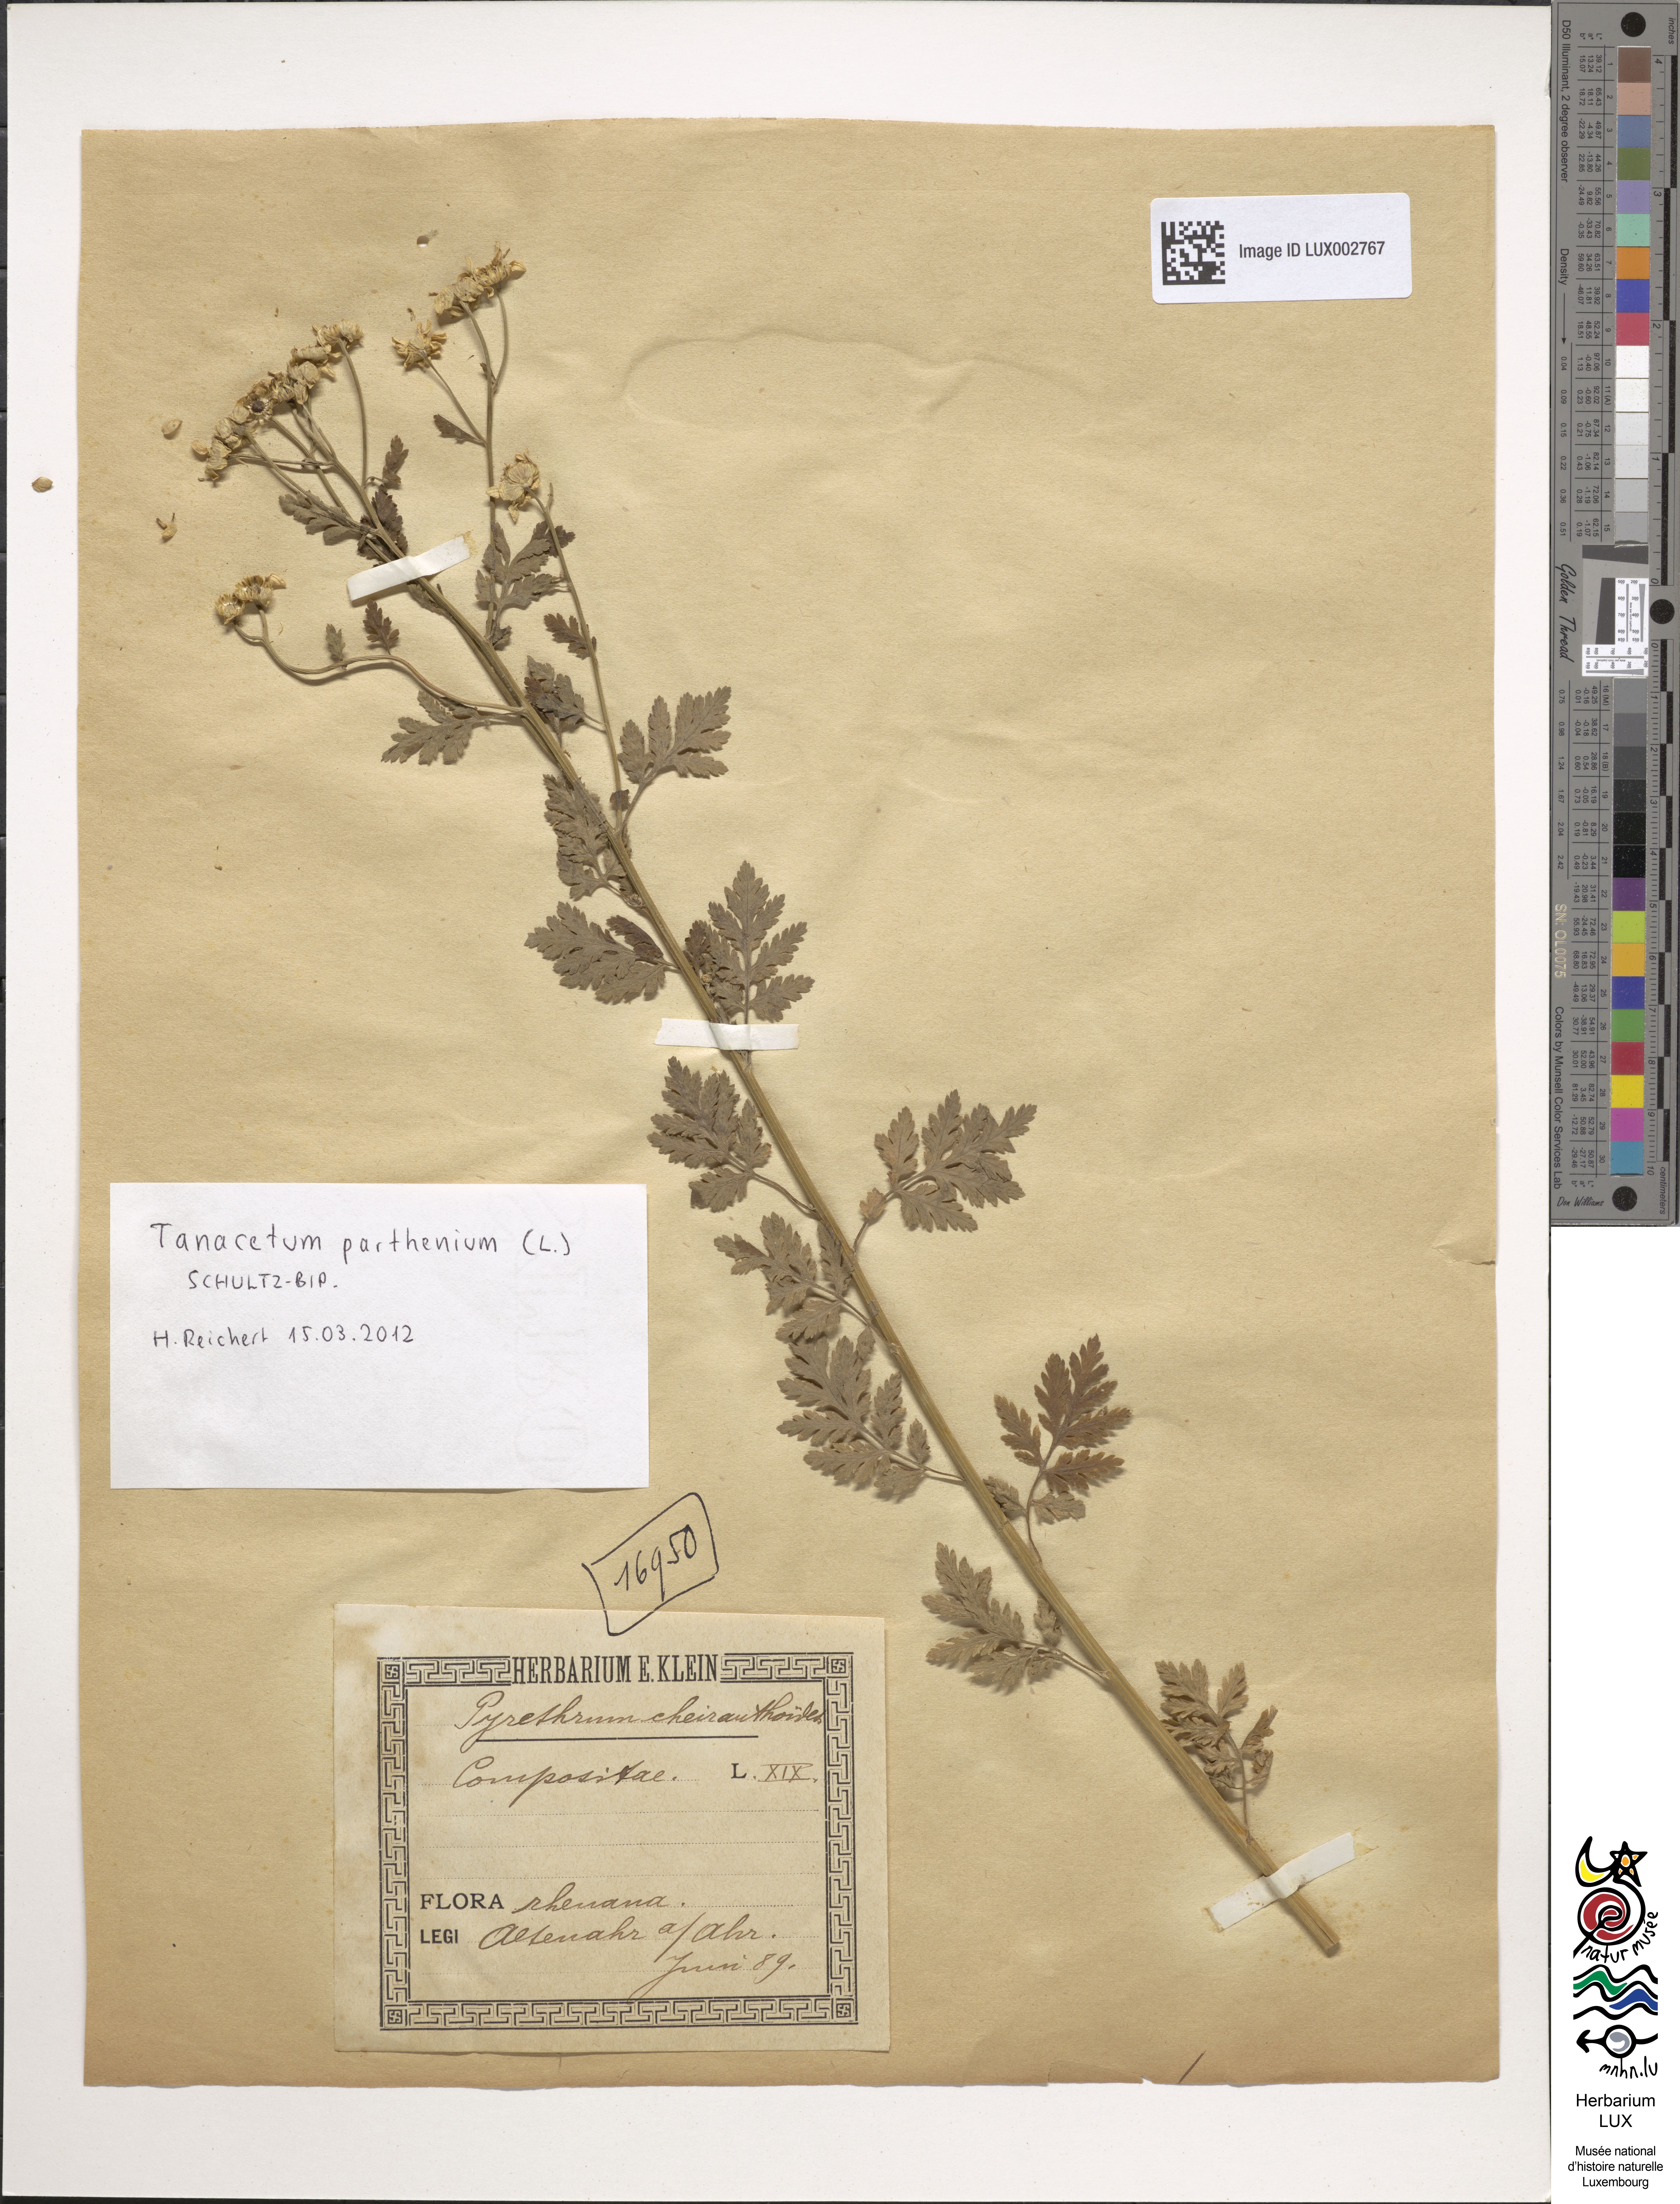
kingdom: Plantae
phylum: Tracheophyta
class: Magnoliopsida
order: Asterales
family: Asteraceae
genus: Tanacetum
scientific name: Tanacetum parthenium
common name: Feverfew
